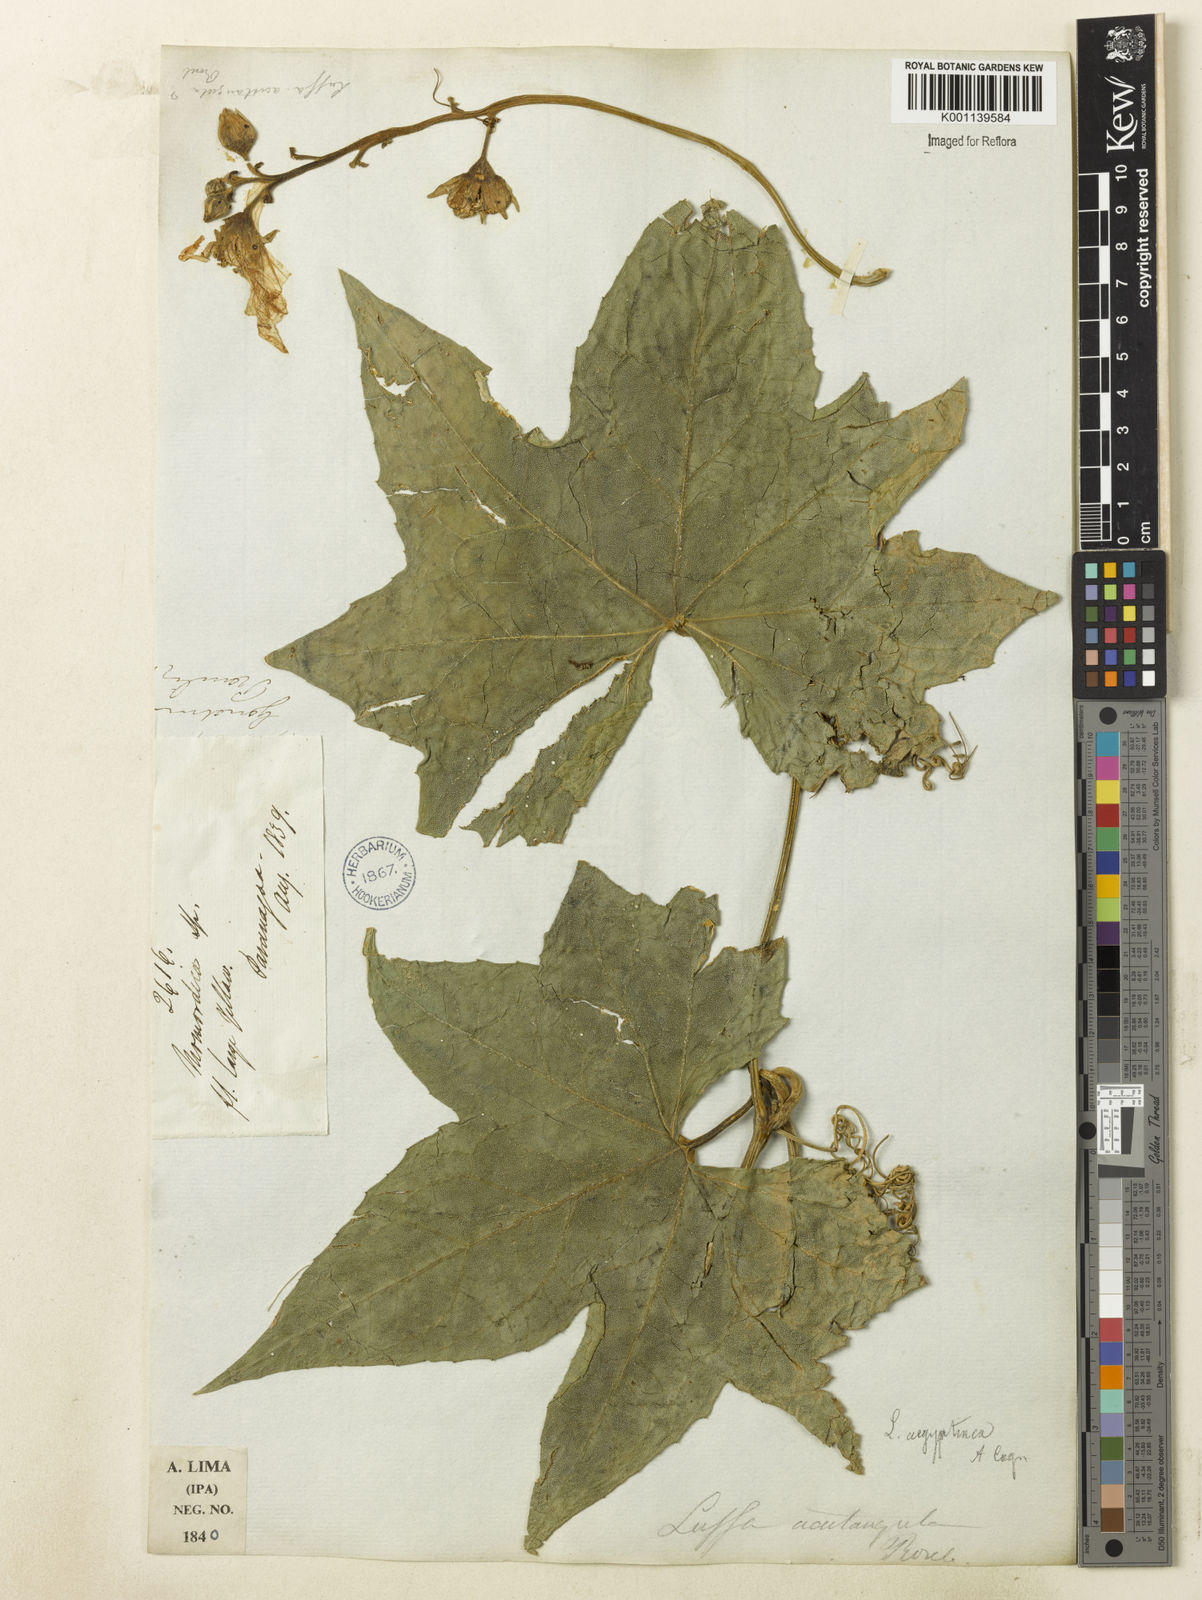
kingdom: Plantae
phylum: Tracheophyta
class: Magnoliopsida
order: Cucurbitales
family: Cucurbitaceae
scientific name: Cucurbitaceae
